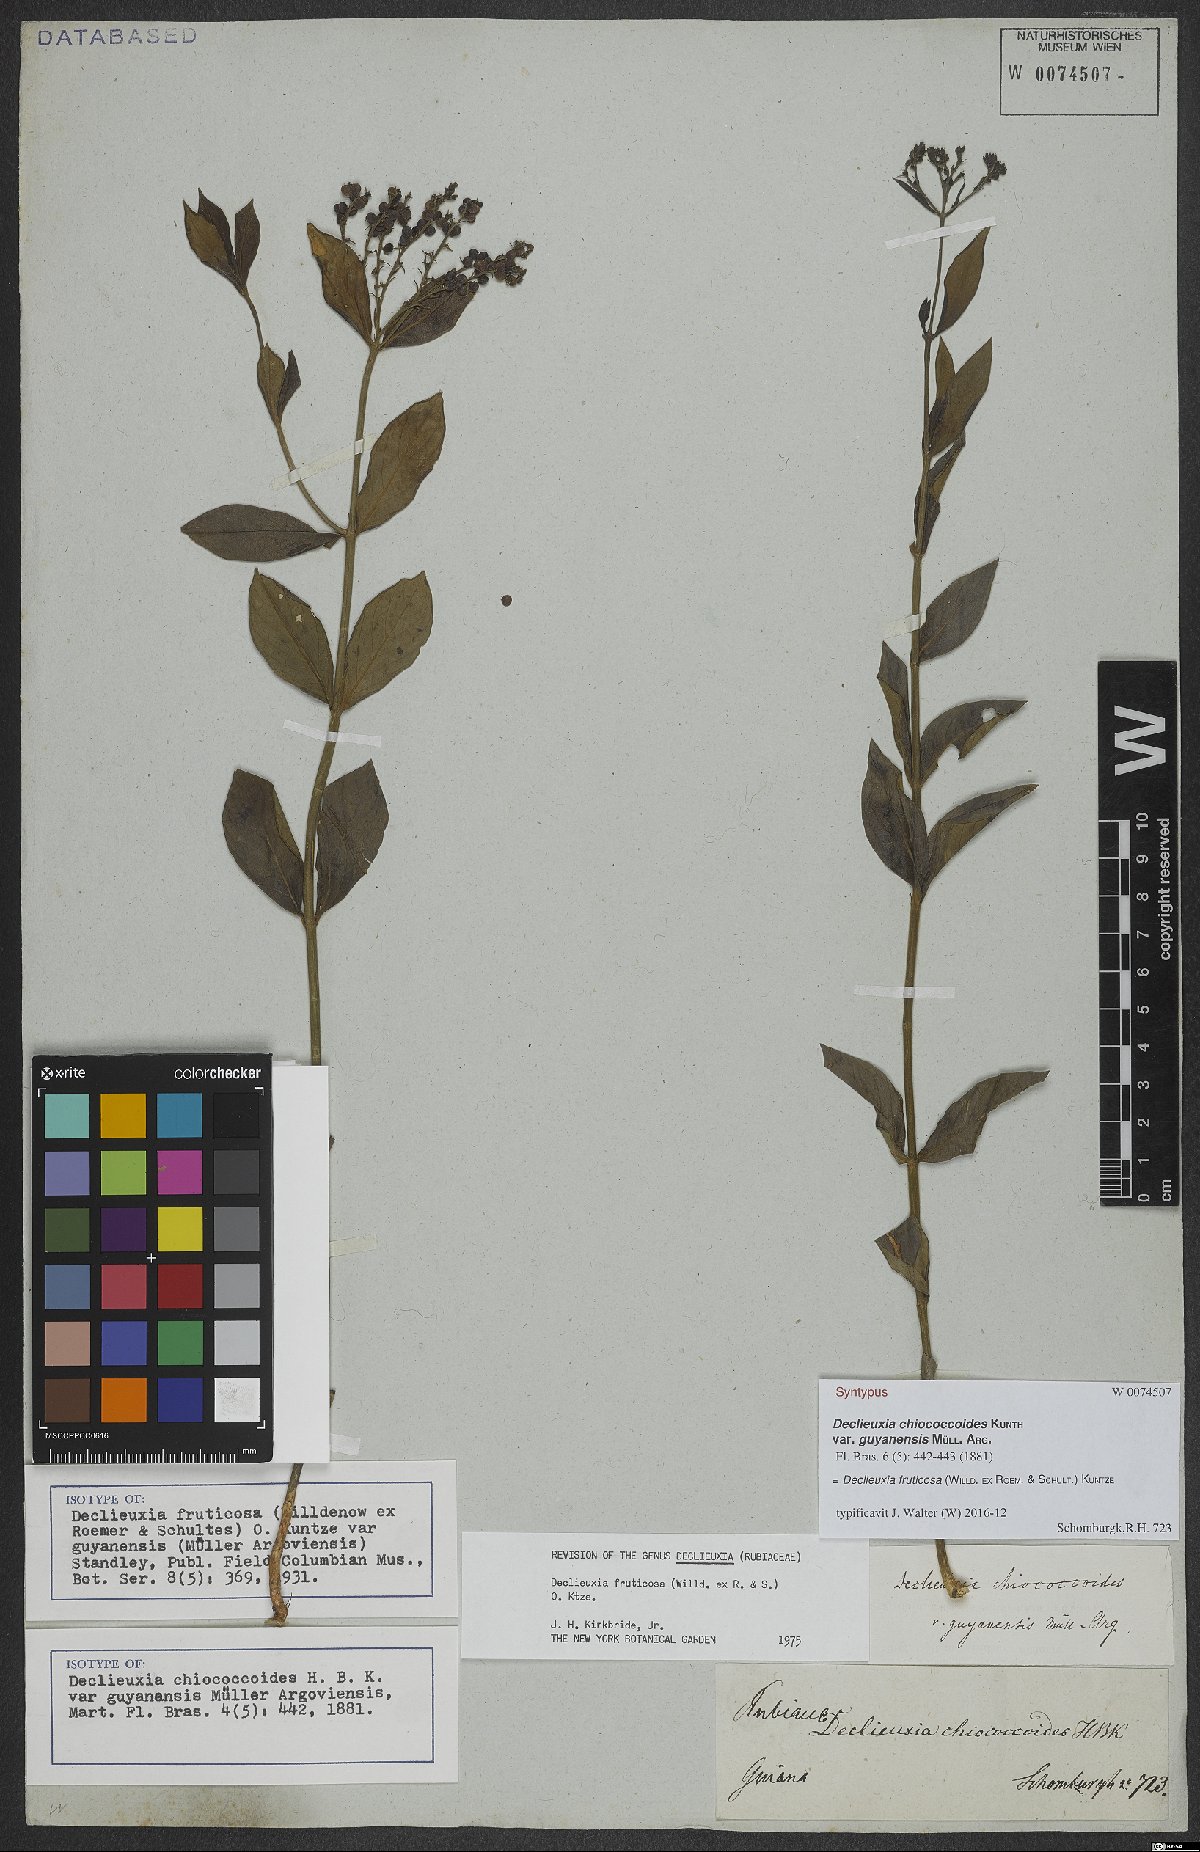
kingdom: Plantae
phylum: Tracheophyta
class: Magnoliopsida
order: Gentianales
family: Rubiaceae
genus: Declieuxia
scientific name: Declieuxia fruticosa
